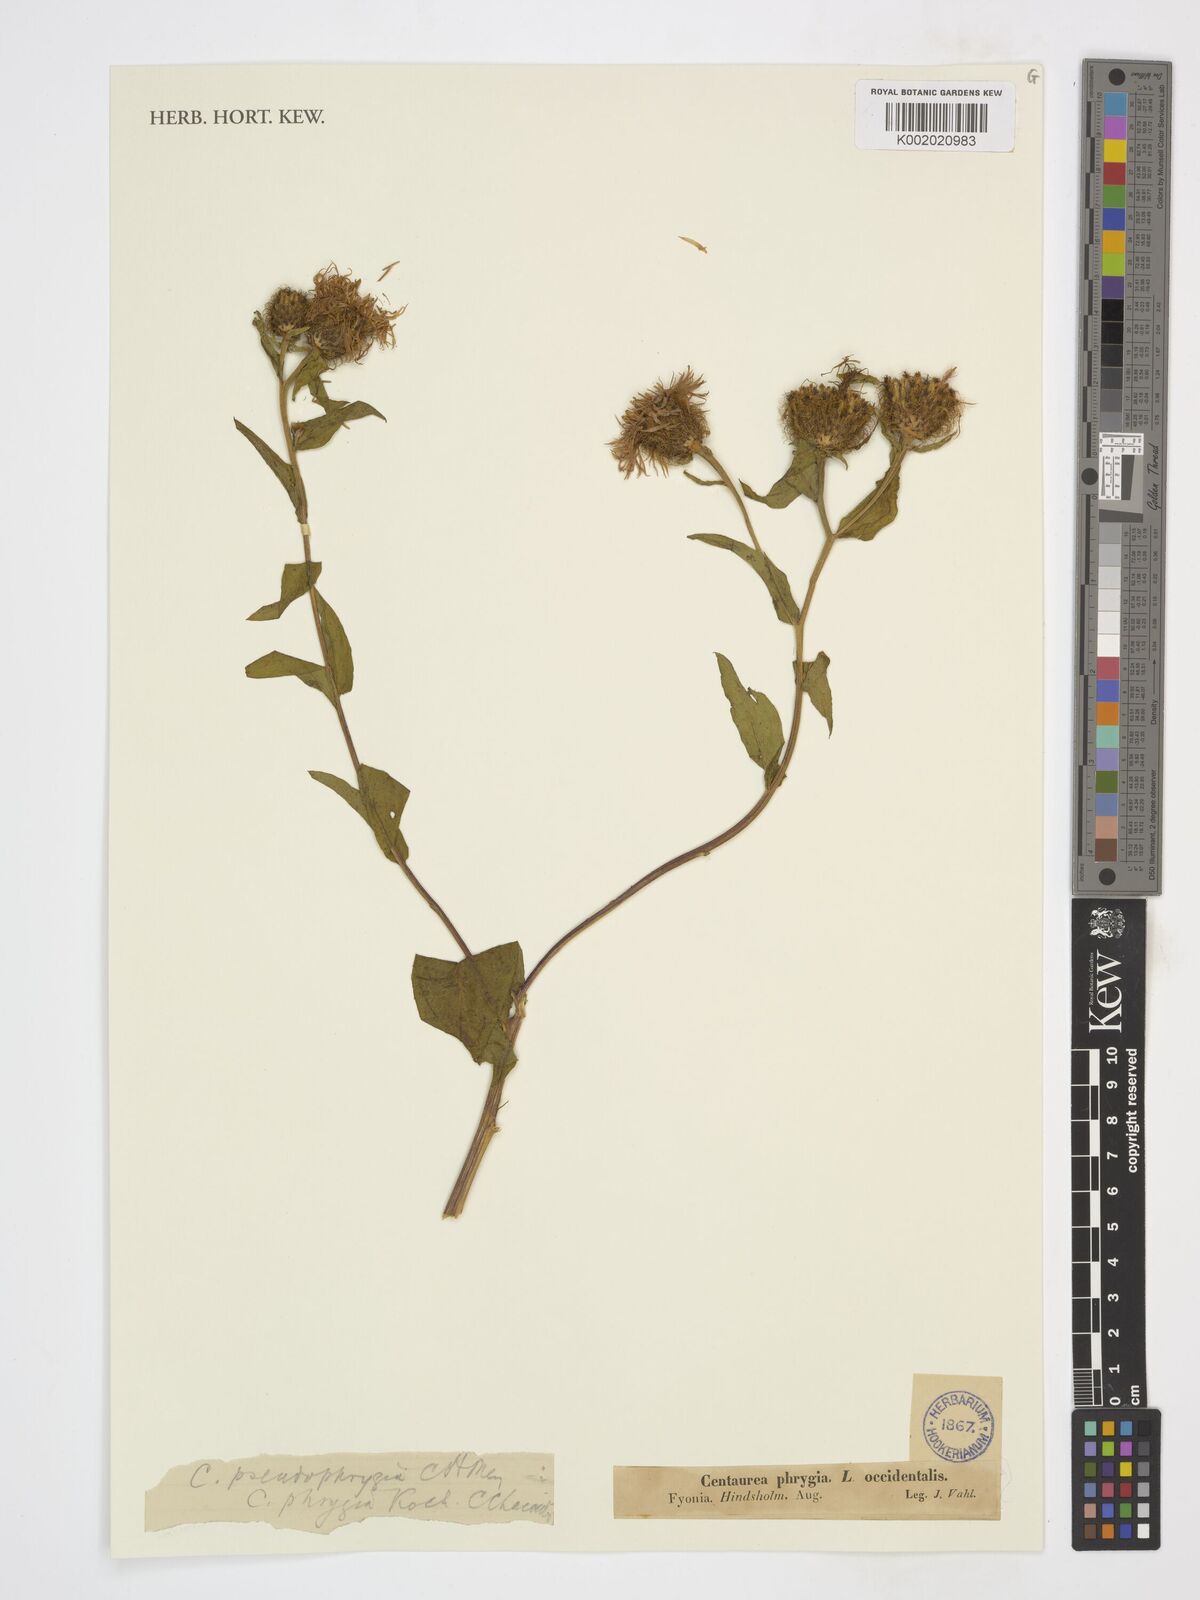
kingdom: Plantae
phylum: Tracheophyta
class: Magnoliopsida
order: Asterales
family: Asteraceae
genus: Centaurea
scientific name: Centaurea pseudophrygia
